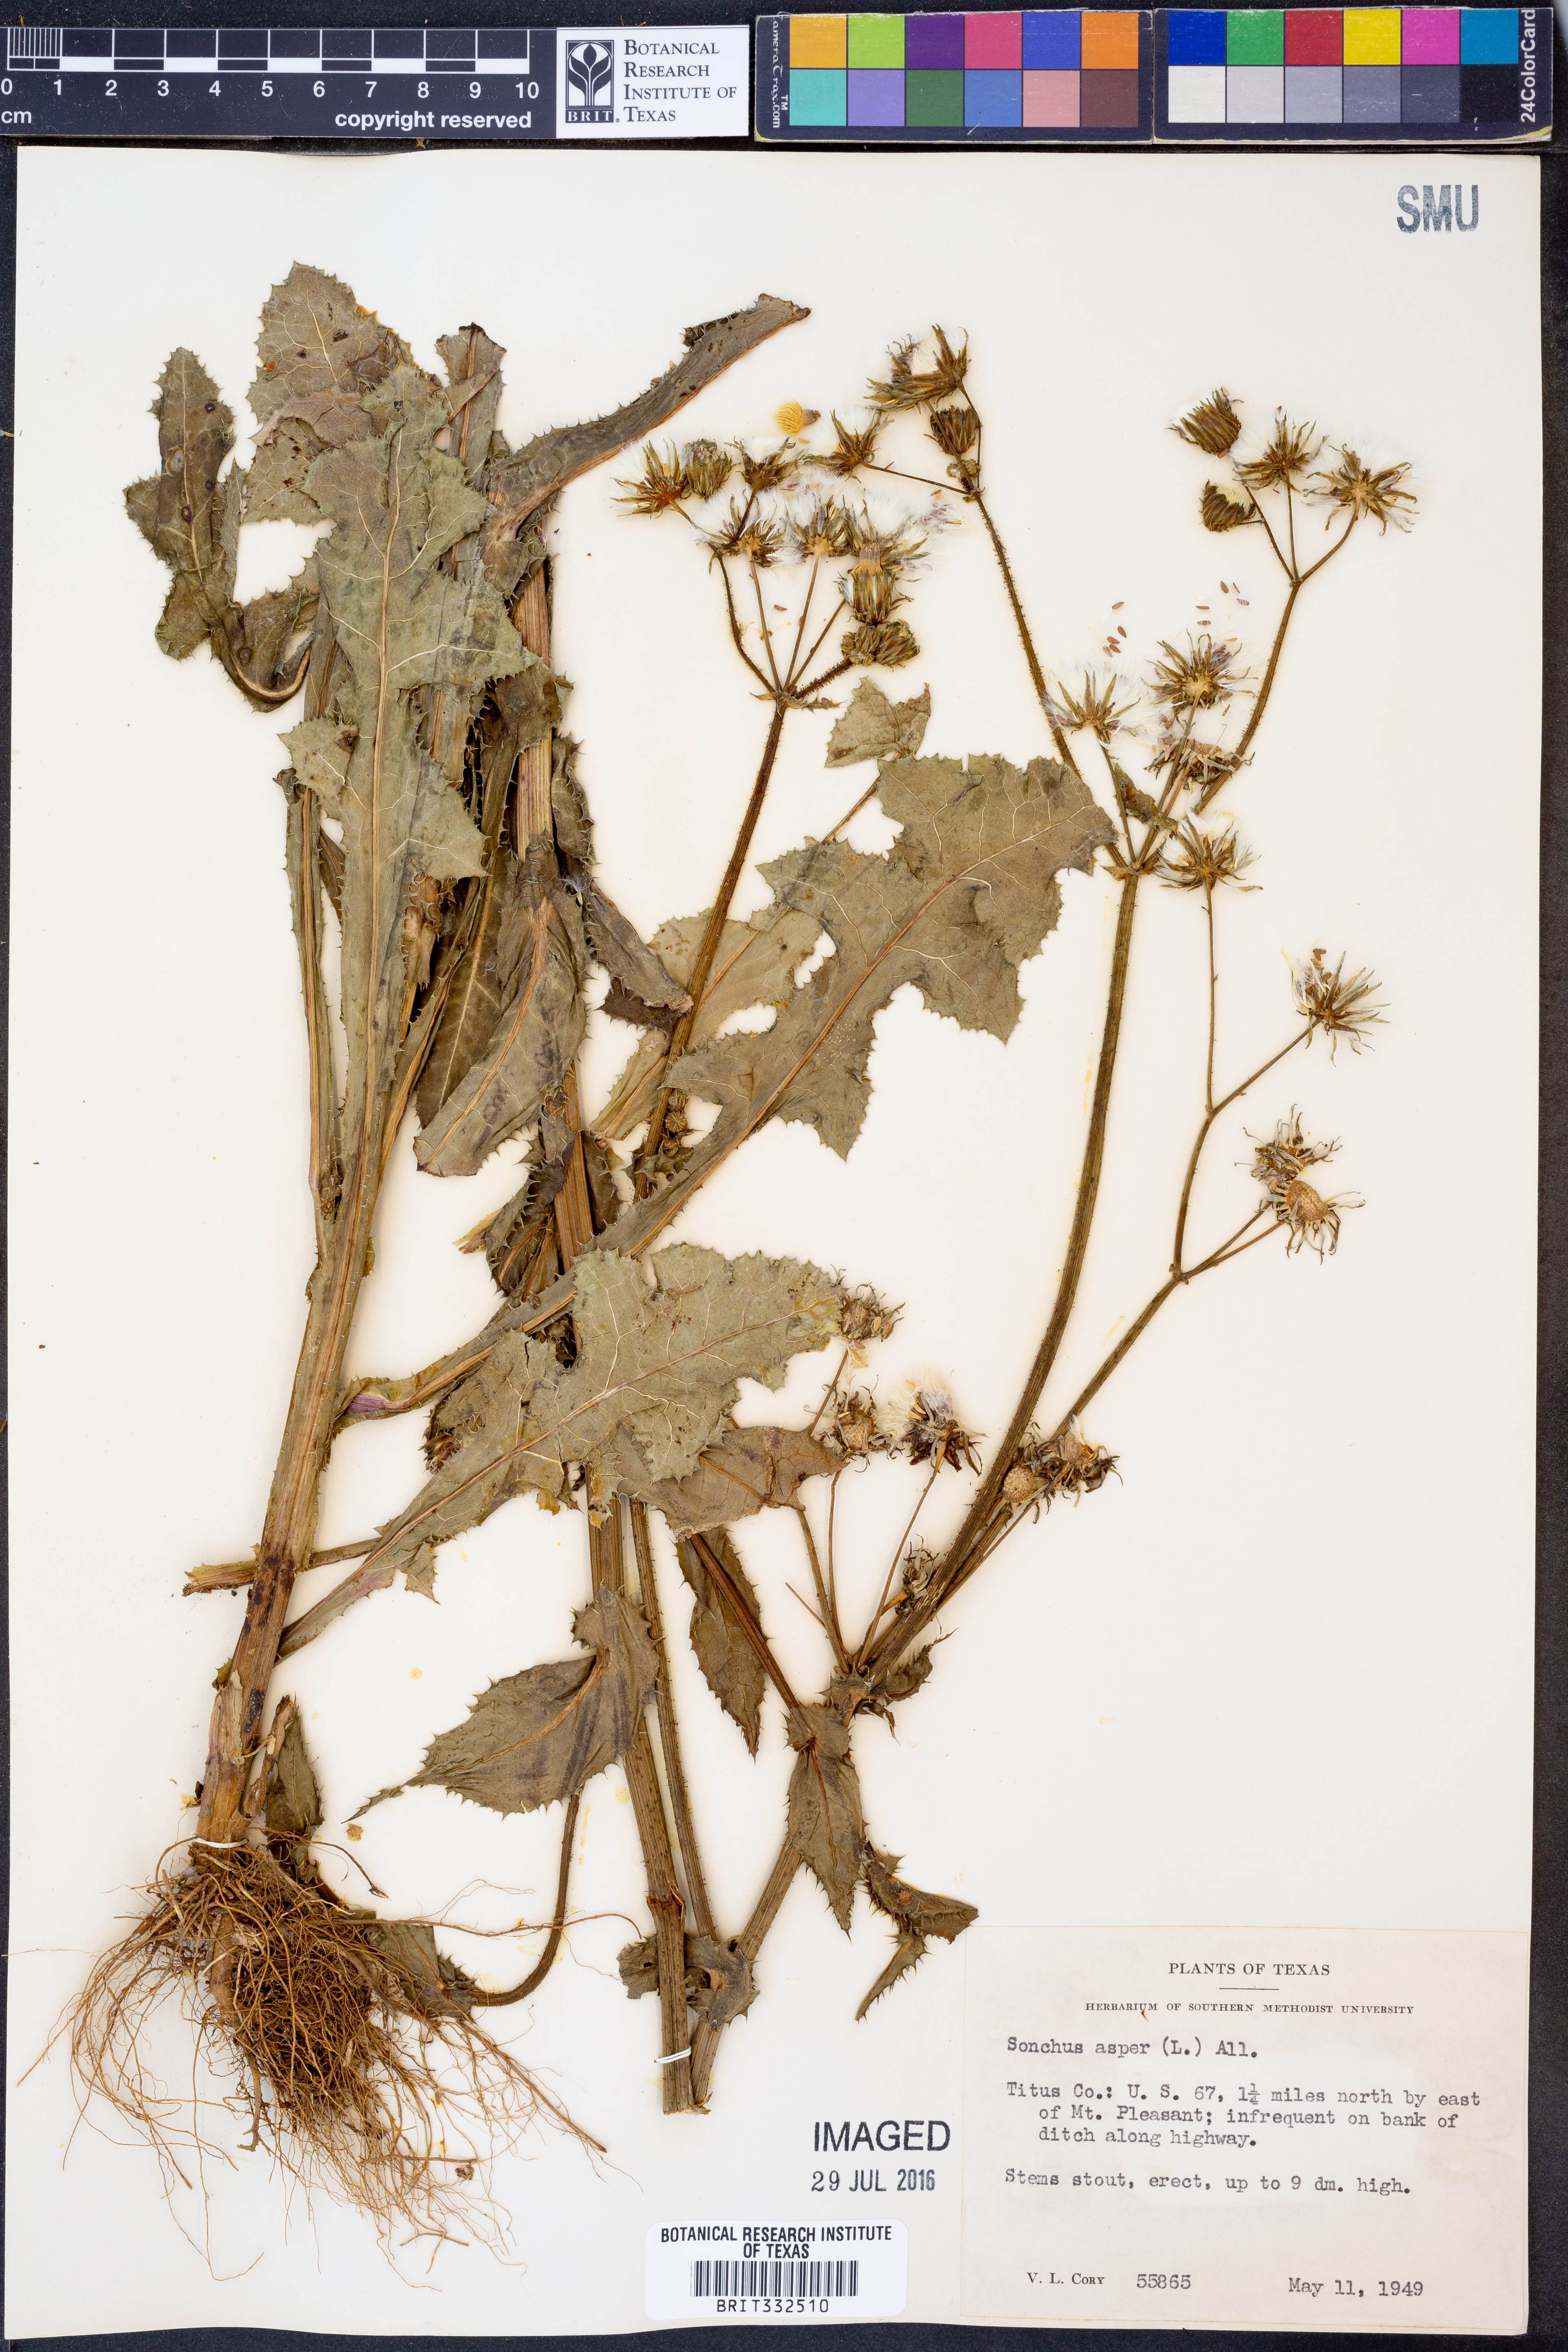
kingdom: Plantae
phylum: Tracheophyta
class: Magnoliopsida
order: Asterales
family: Asteraceae
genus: Sonchus
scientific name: Sonchus asper
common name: Prickly sow-thistle
